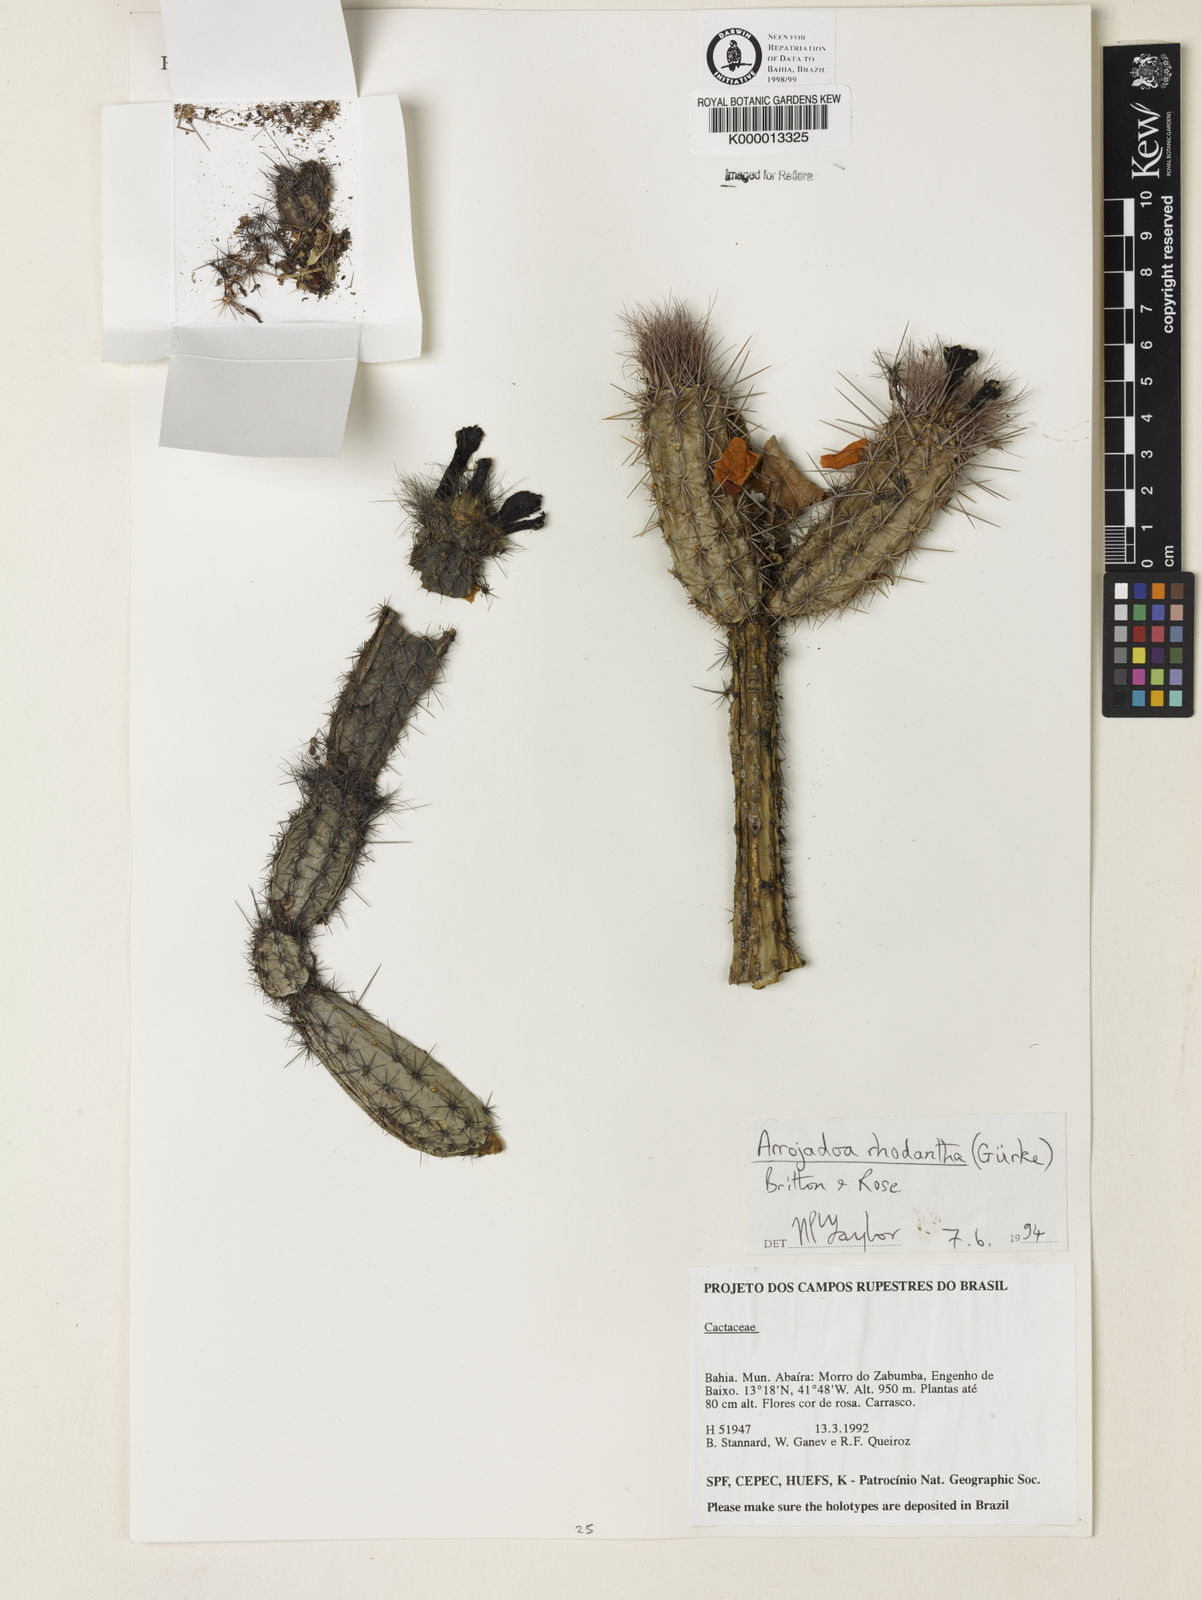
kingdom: Plantae
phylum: Tracheophyta
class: Magnoliopsida
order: Caryophyllales
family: Cactaceae
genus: Arrojadoa
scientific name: Arrojadoa rhodantha
